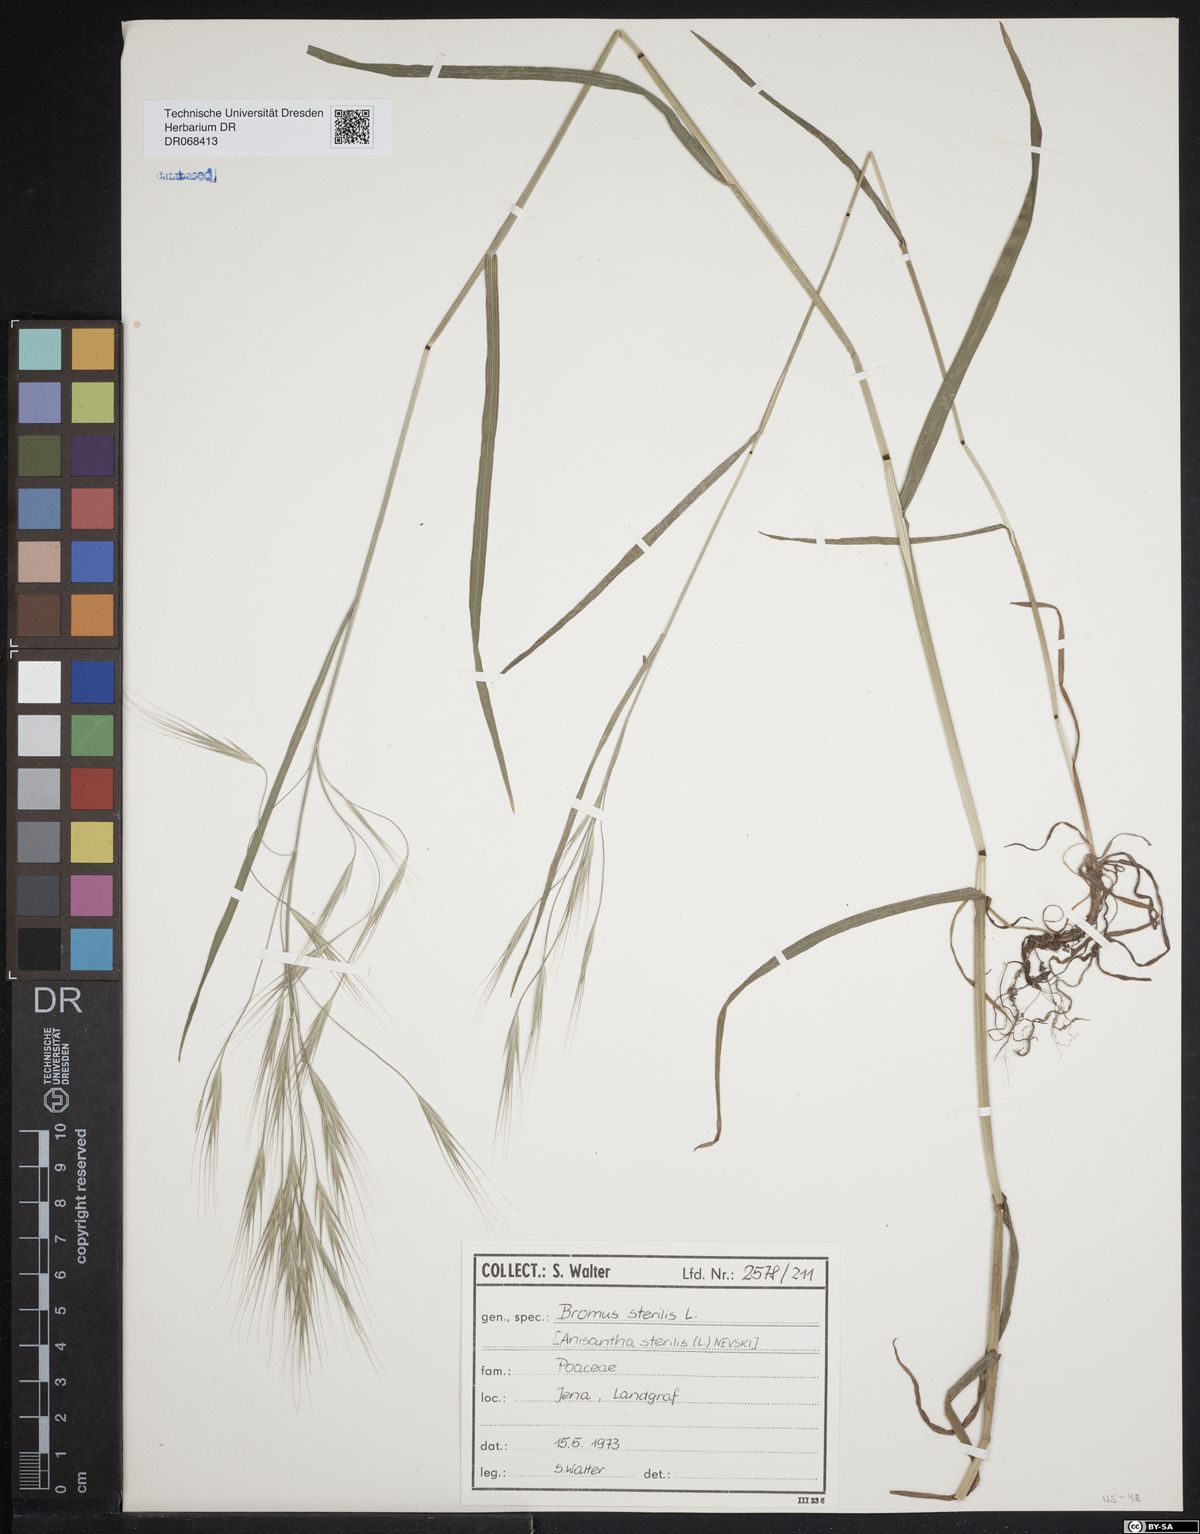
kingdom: Plantae
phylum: Tracheophyta
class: Liliopsida
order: Poales
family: Poaceae
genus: Bromus
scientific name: Bromus sterilis
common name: Poverty brome
